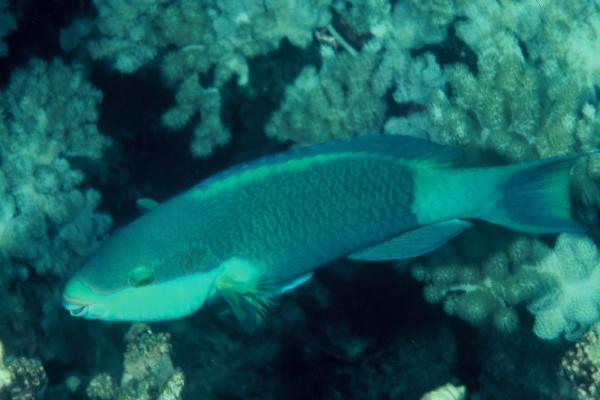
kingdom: Animalia
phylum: Chordata
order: Perciformes
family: Scaridae
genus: Scarus
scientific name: Scarus frenatus
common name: Bridled parrotfish
